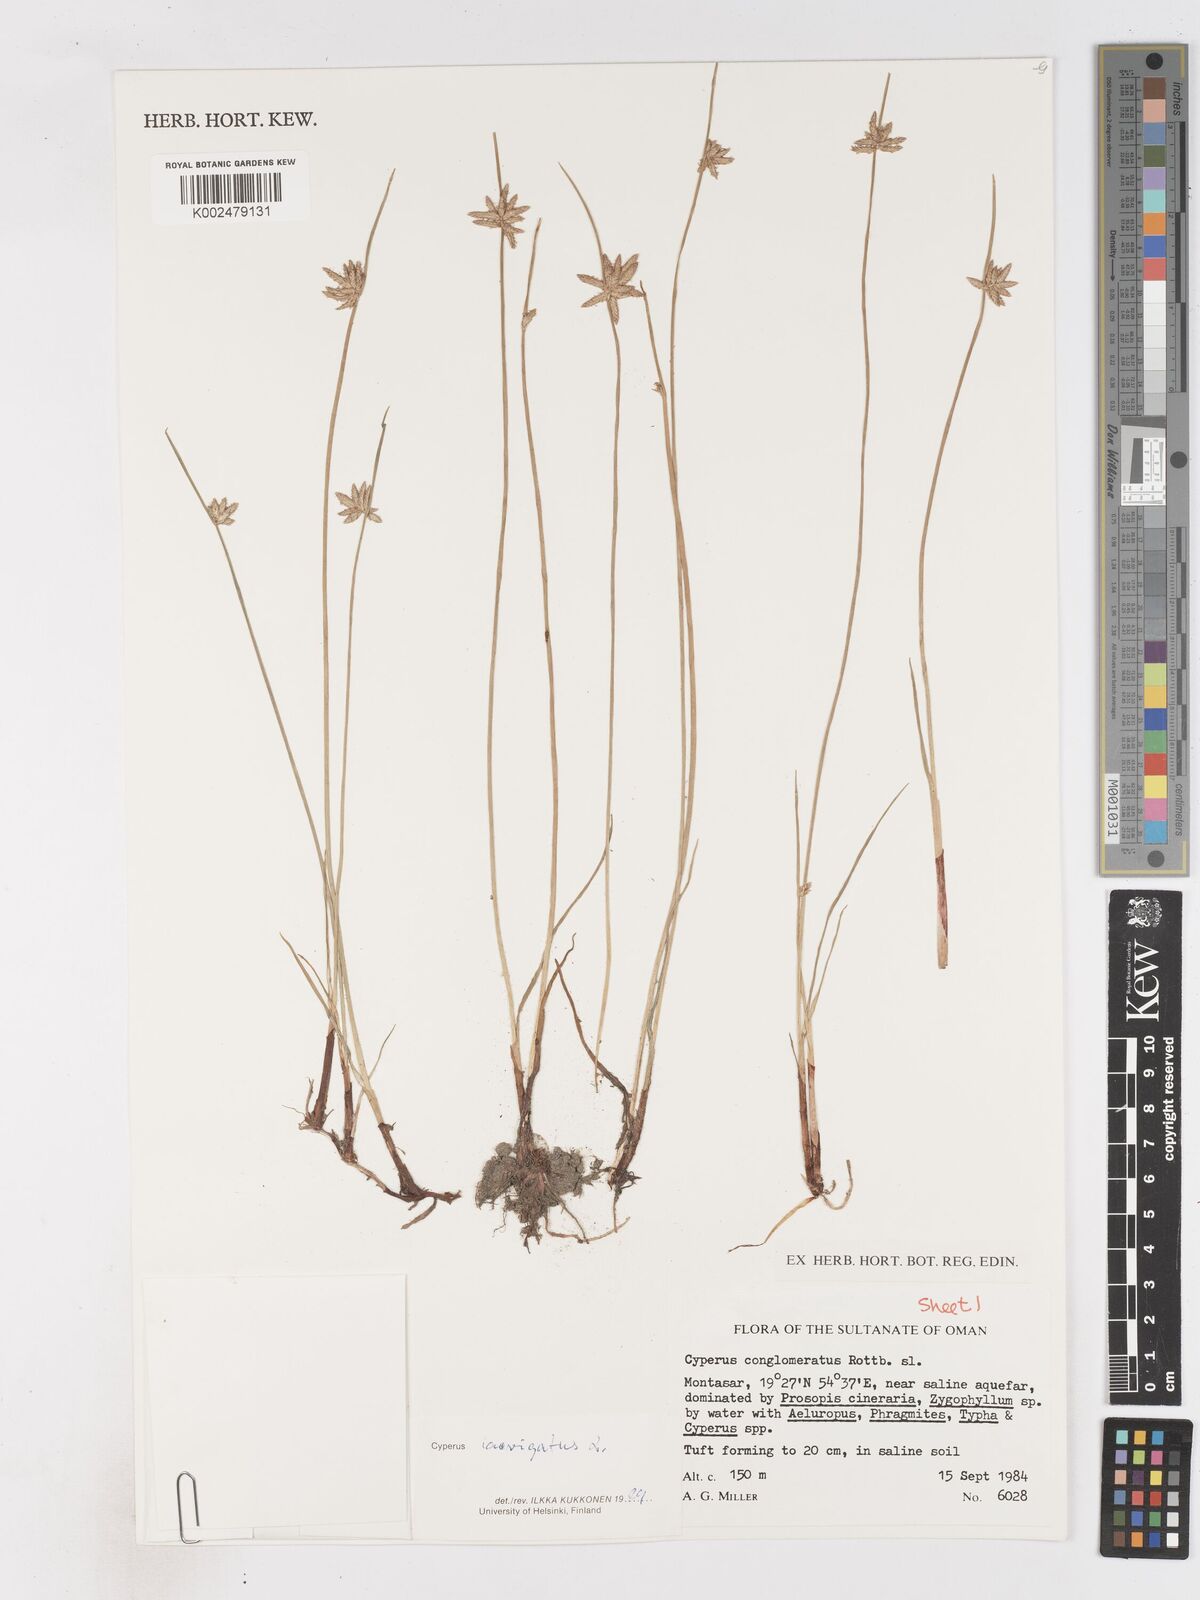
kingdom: Plantae
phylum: Tracheophyta
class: Liliopsida
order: Poales
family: Cyperaceae
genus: Cyperus
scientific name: Cyperus laevigatus
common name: Smooth flat sedge
